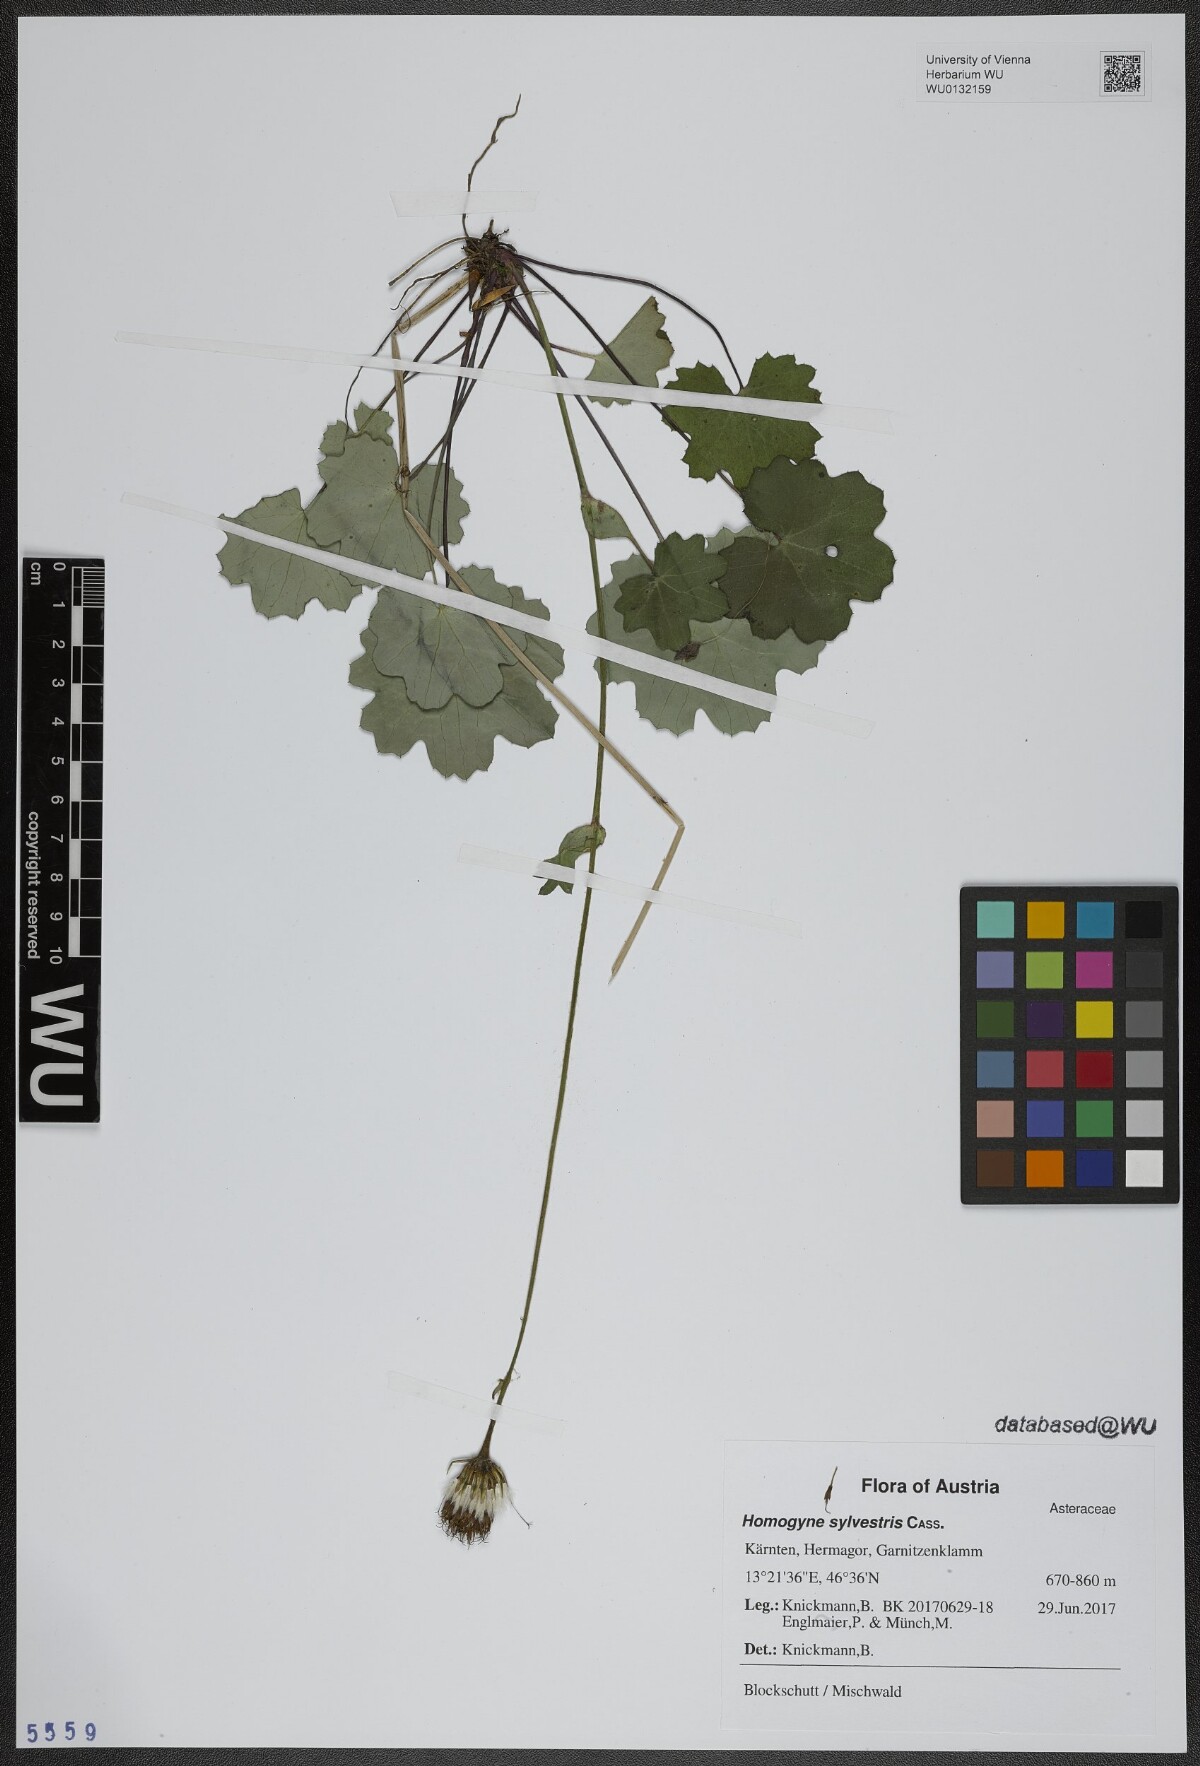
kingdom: Plantae
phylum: Tracheophyta
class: Magnoliopsida
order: Asterales
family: Asteraceae
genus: Homogyne
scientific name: Homogyne sylvestris
